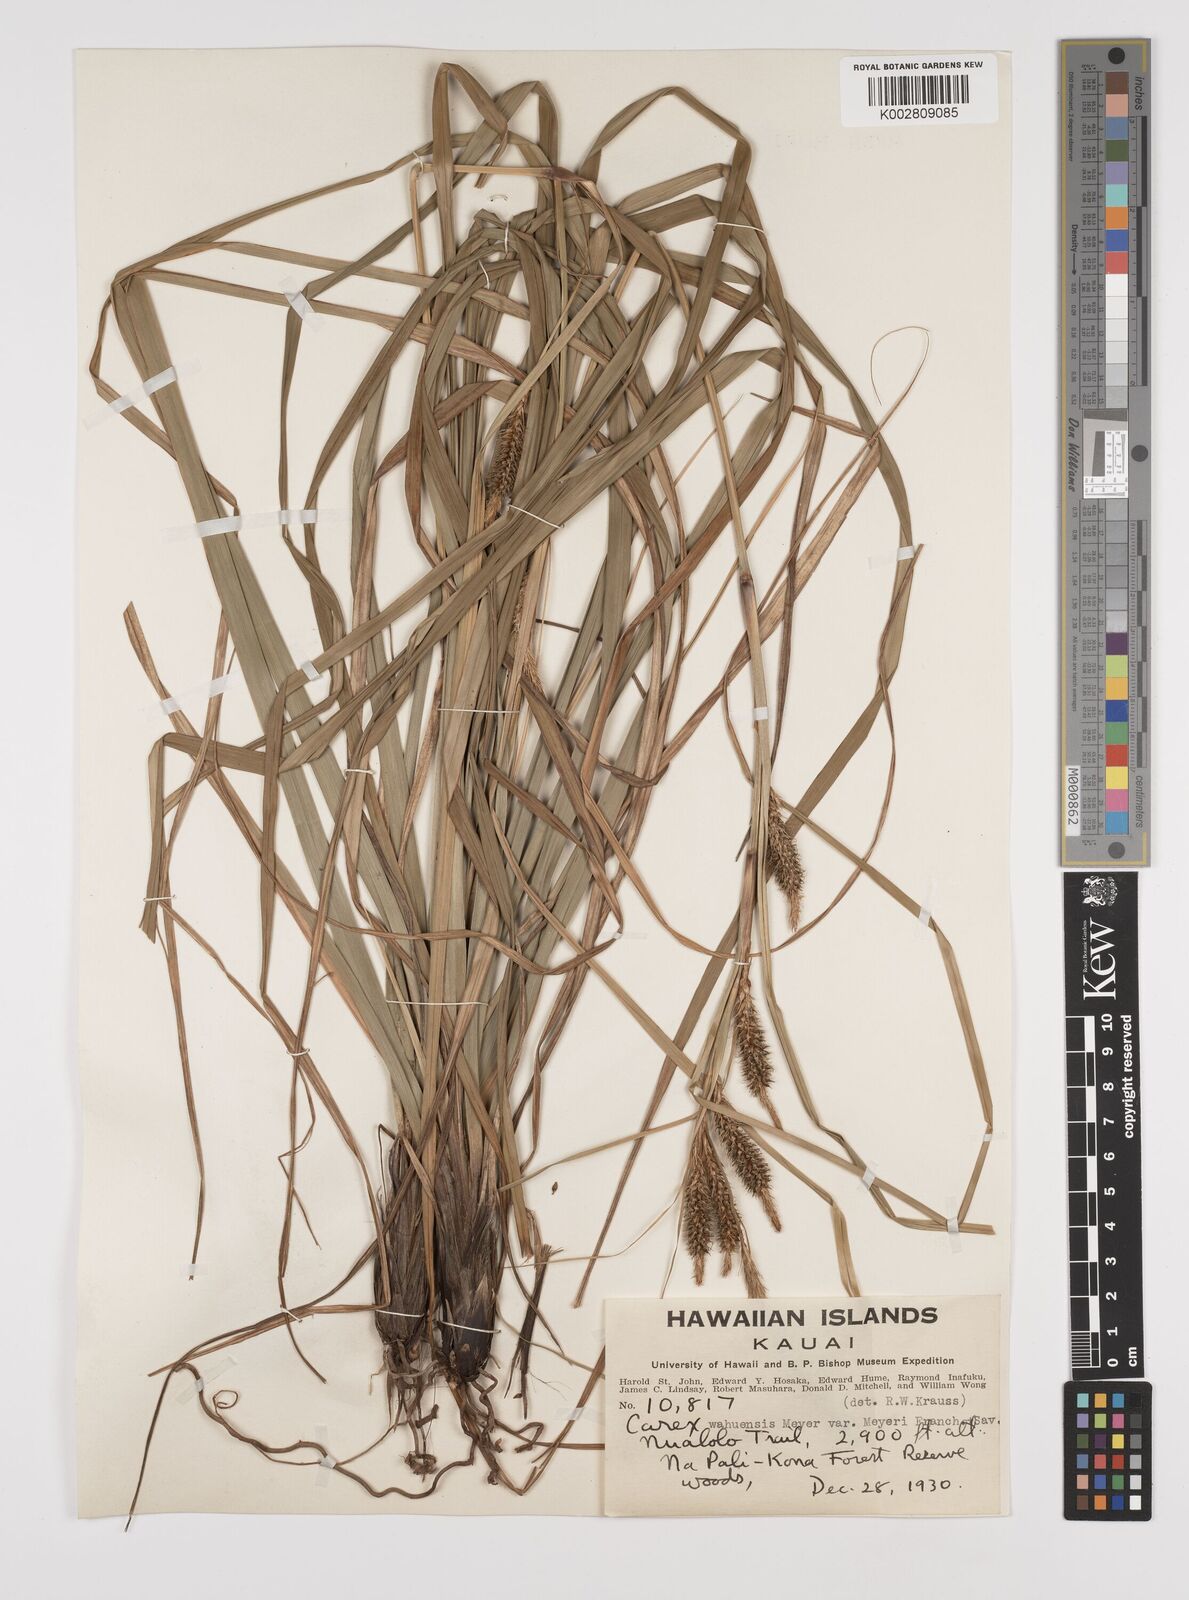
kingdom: Plantae
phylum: Tracheophyta
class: Liliopsida
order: Poales
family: Cyperaceae
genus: Carex
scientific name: Carex wahuensis
